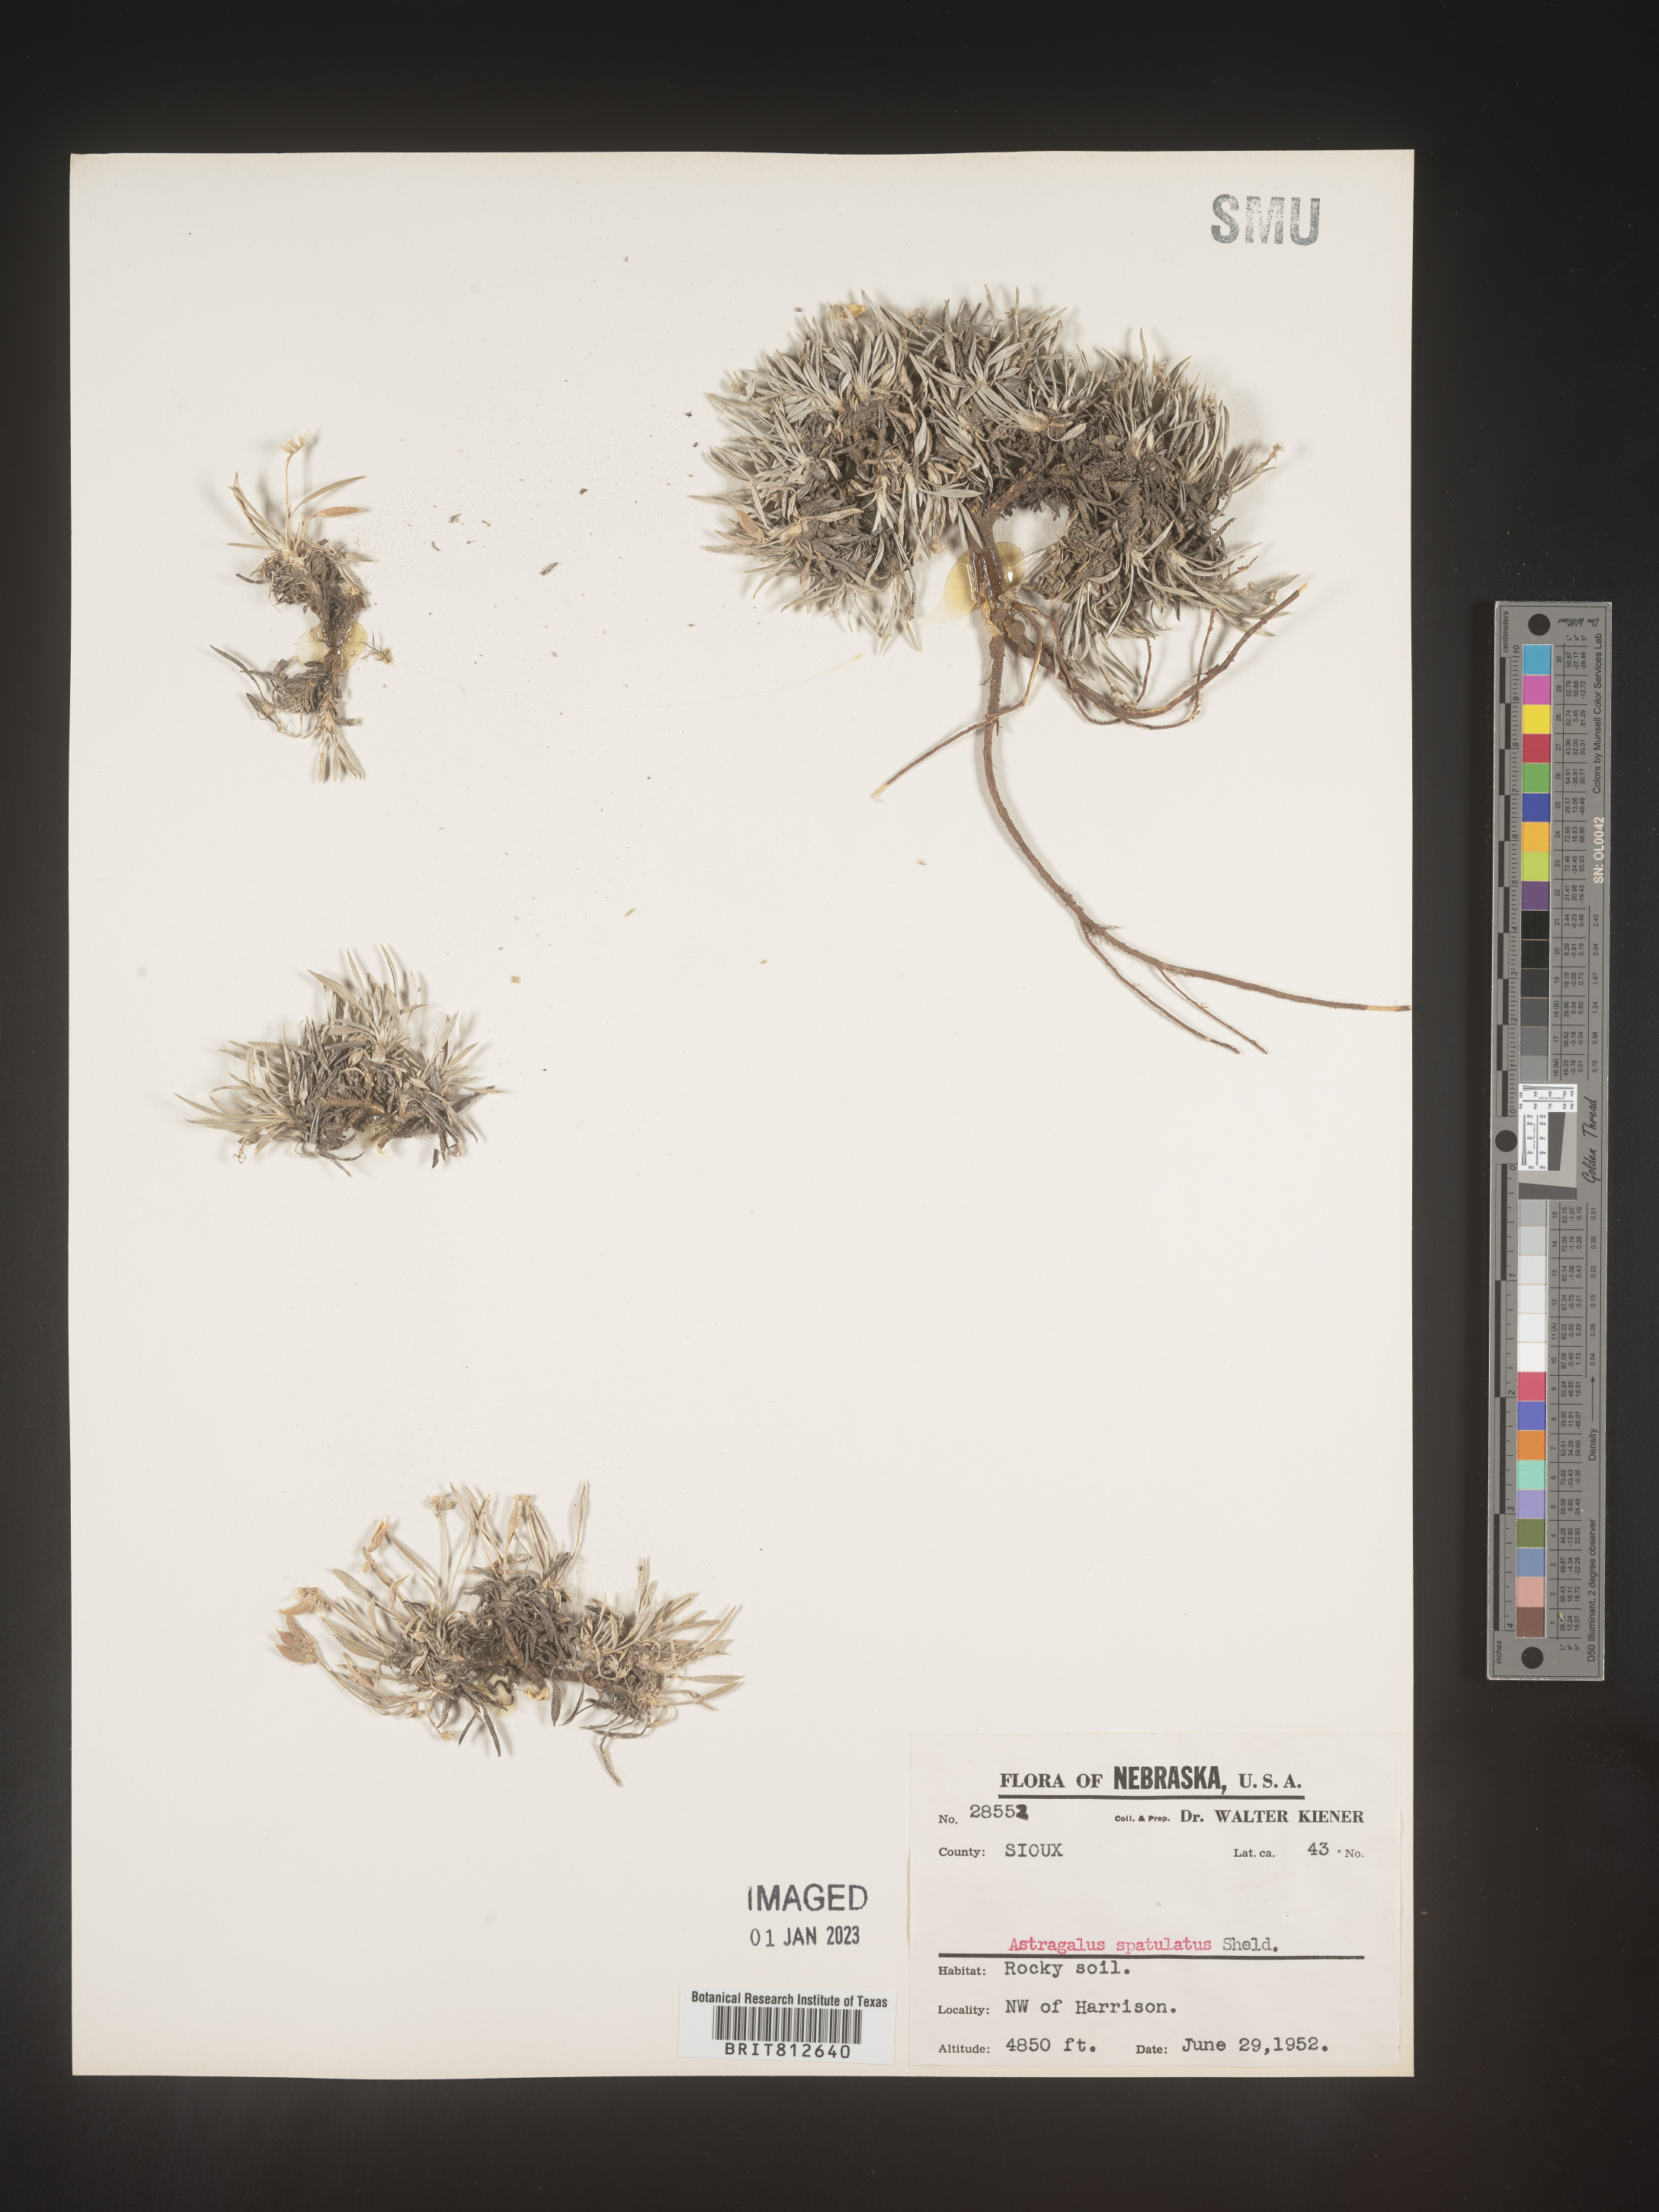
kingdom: Plantae
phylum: Tracheophyta
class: Magnoliopsida
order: Fabales
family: Fabaceae
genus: Astragalus
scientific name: Astragalus
